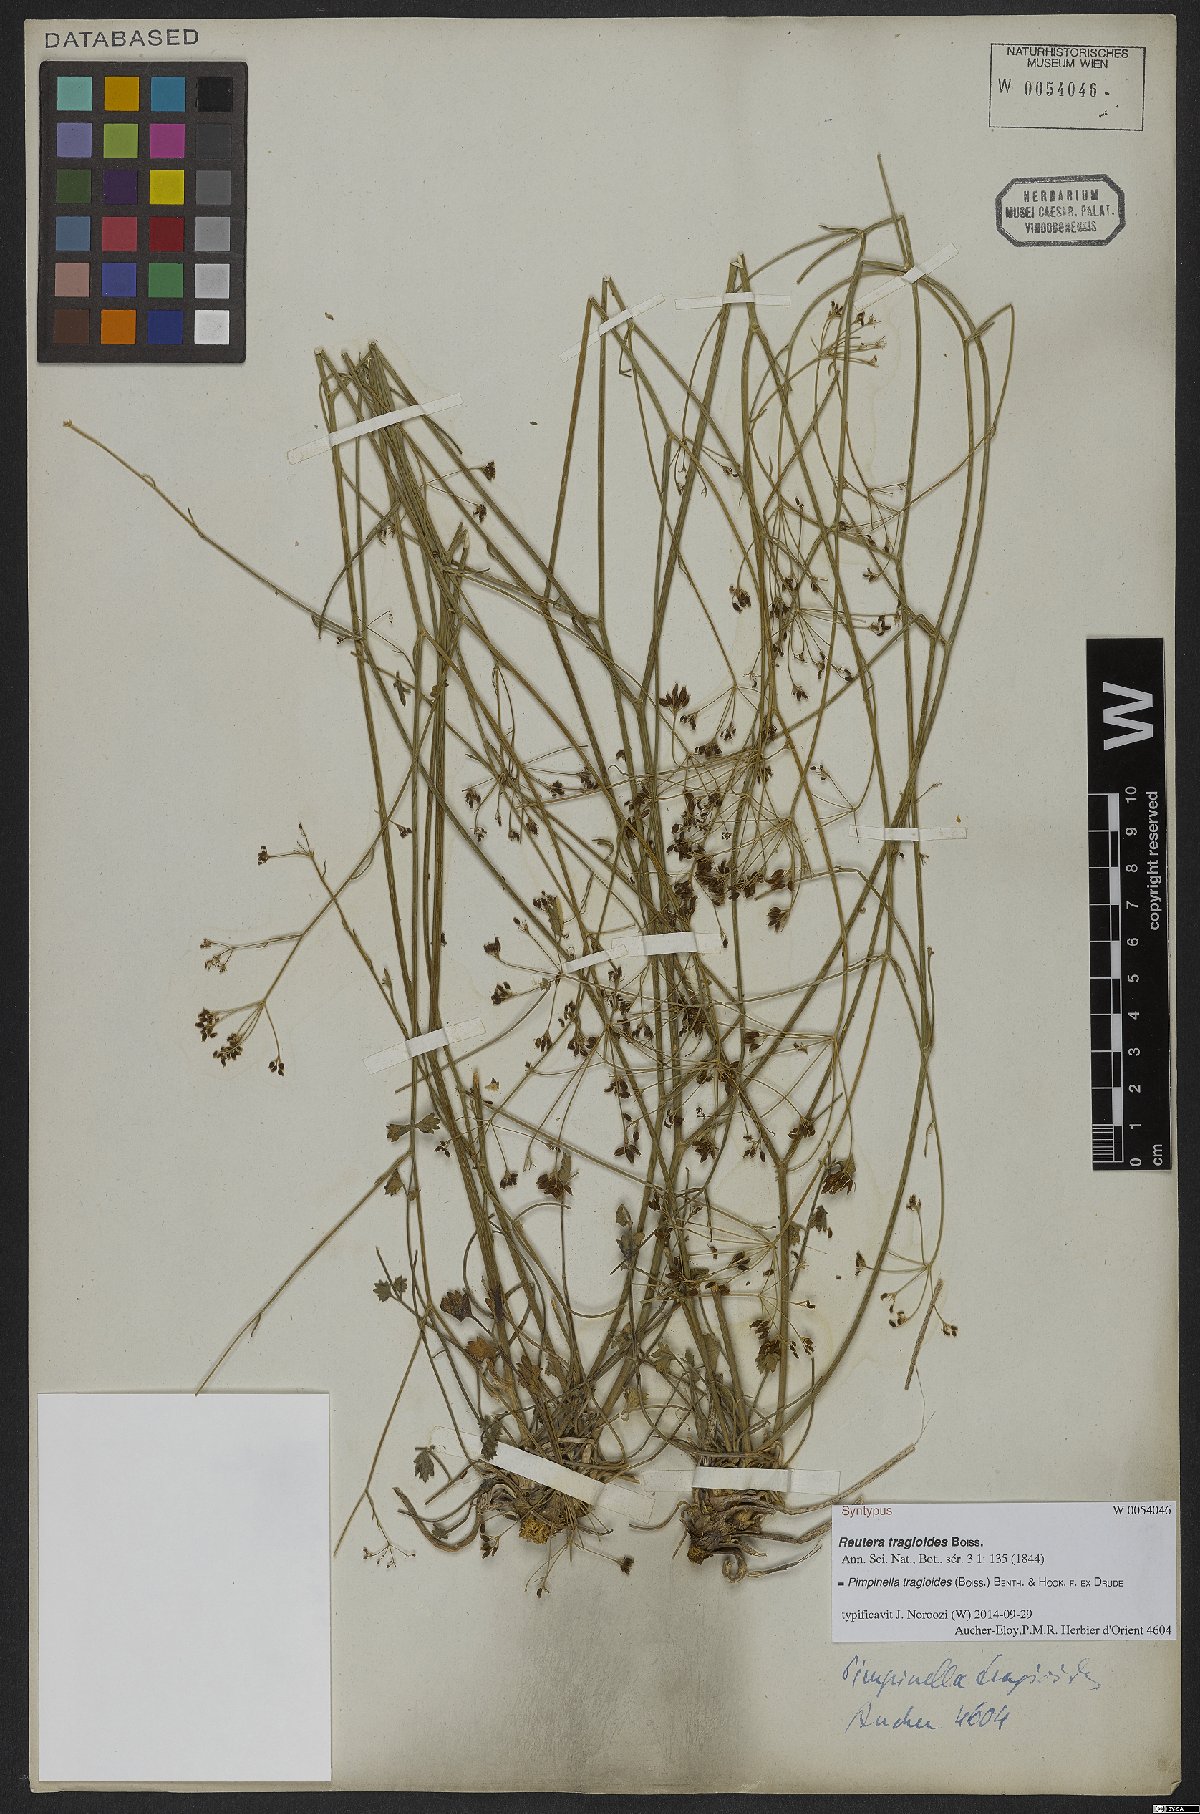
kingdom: Plantae
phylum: Tracheophyta
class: Magnoliopsida
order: Apiales
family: Apiaceae
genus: Pimpinella
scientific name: Pimpinella tragioides
